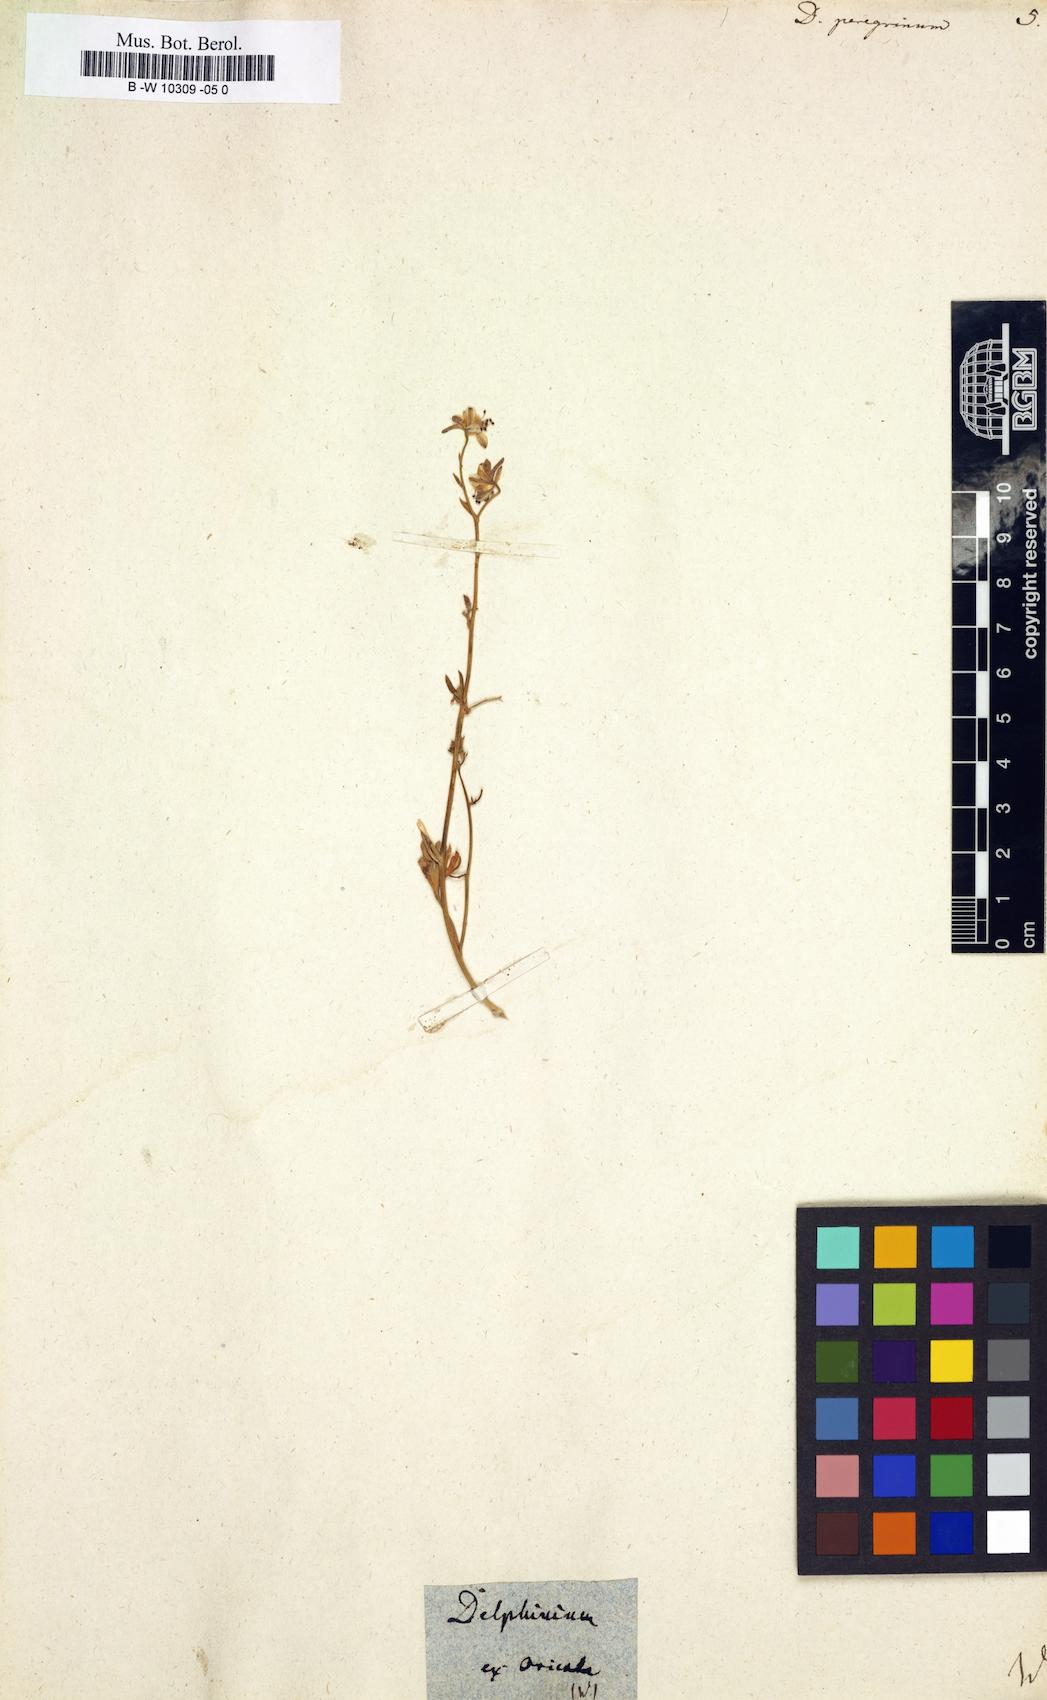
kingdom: Plantae
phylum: Tracheophyta
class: Magnoliopsida
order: Ranunculales
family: Ranunculaceae
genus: Delphinium
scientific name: Delphinium peregrinum
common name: Violet larkspur
